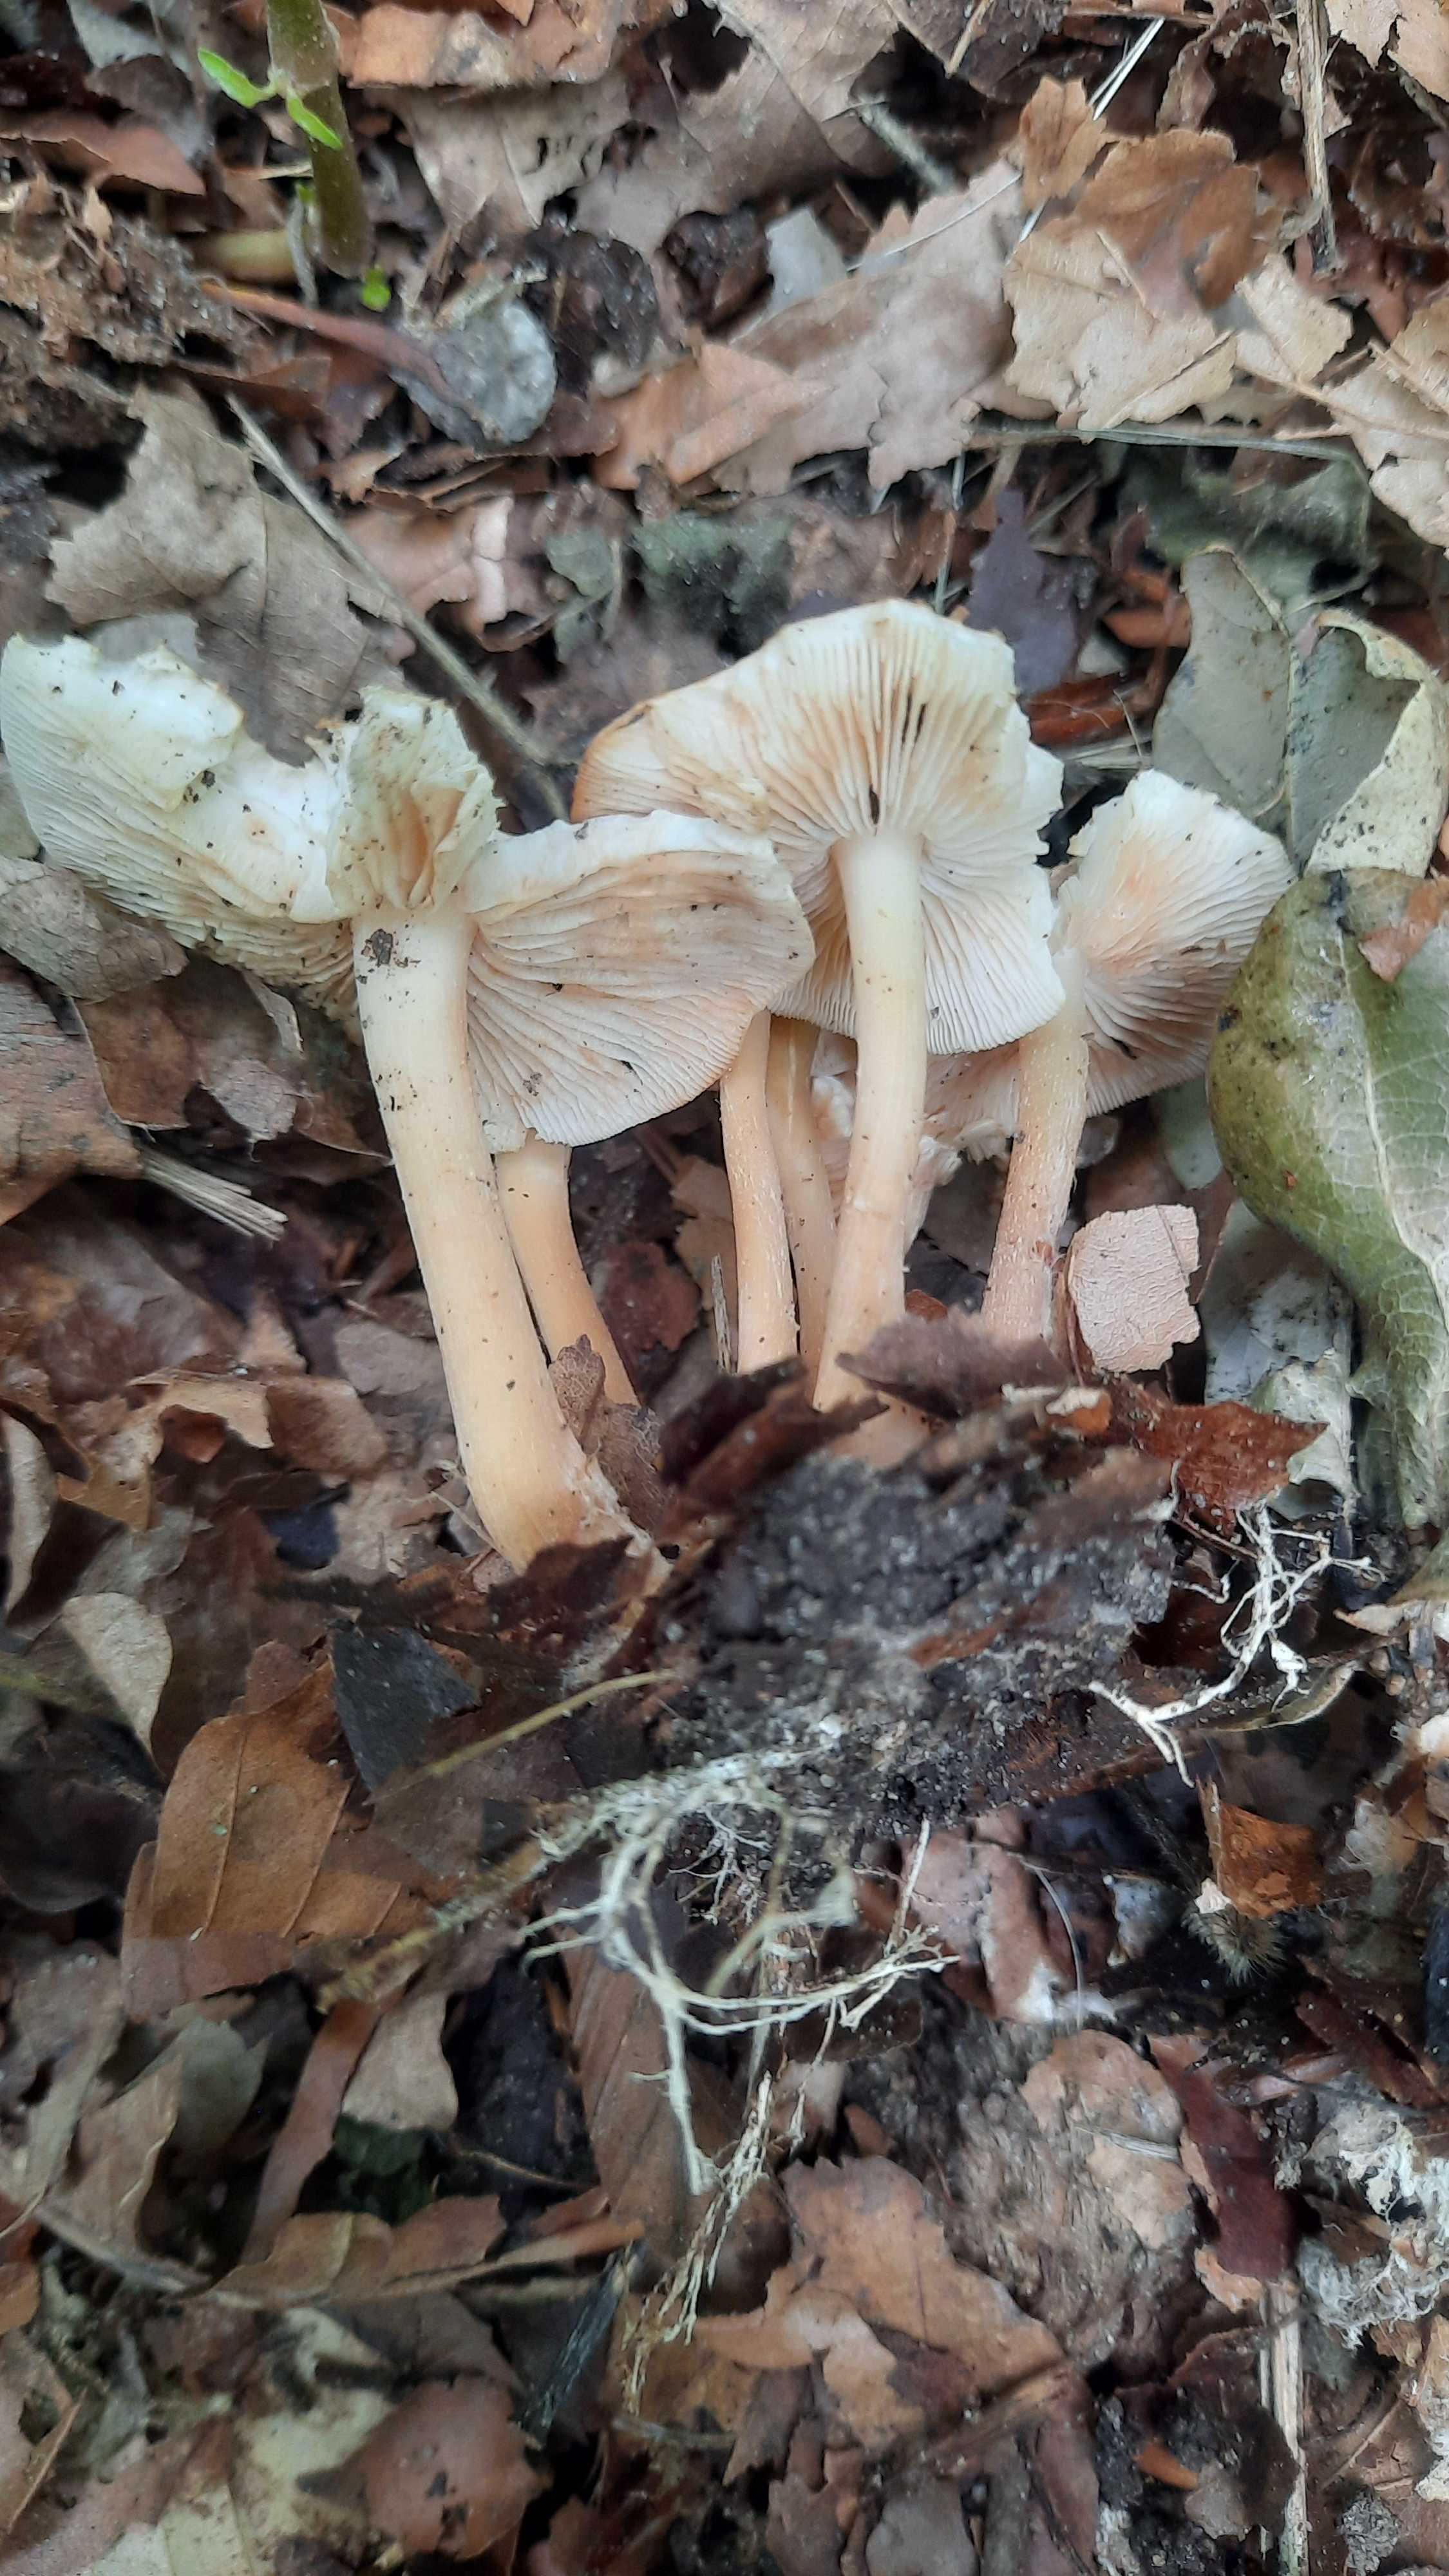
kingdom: Fungi
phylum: Basidiomycota
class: Agaricomycetes
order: Agaricales
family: Omphalotaceae
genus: Gymnopus
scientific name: Gymnopus dryophilus
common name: løv-fladhat
